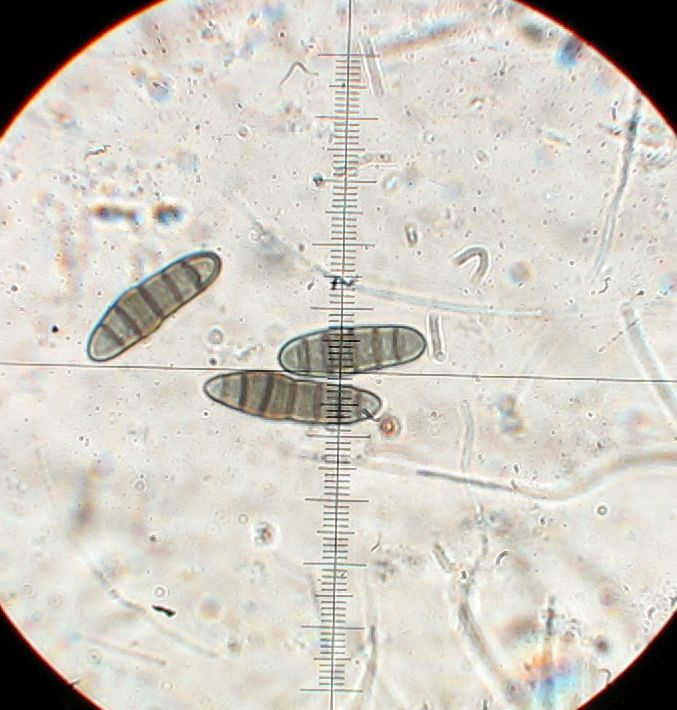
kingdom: Fungi
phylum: Ascomycota
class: Dothideomycetes
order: Pleosporales
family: Thyridariaceae
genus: Thyridaria
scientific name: Thyridaria macrostomoides
